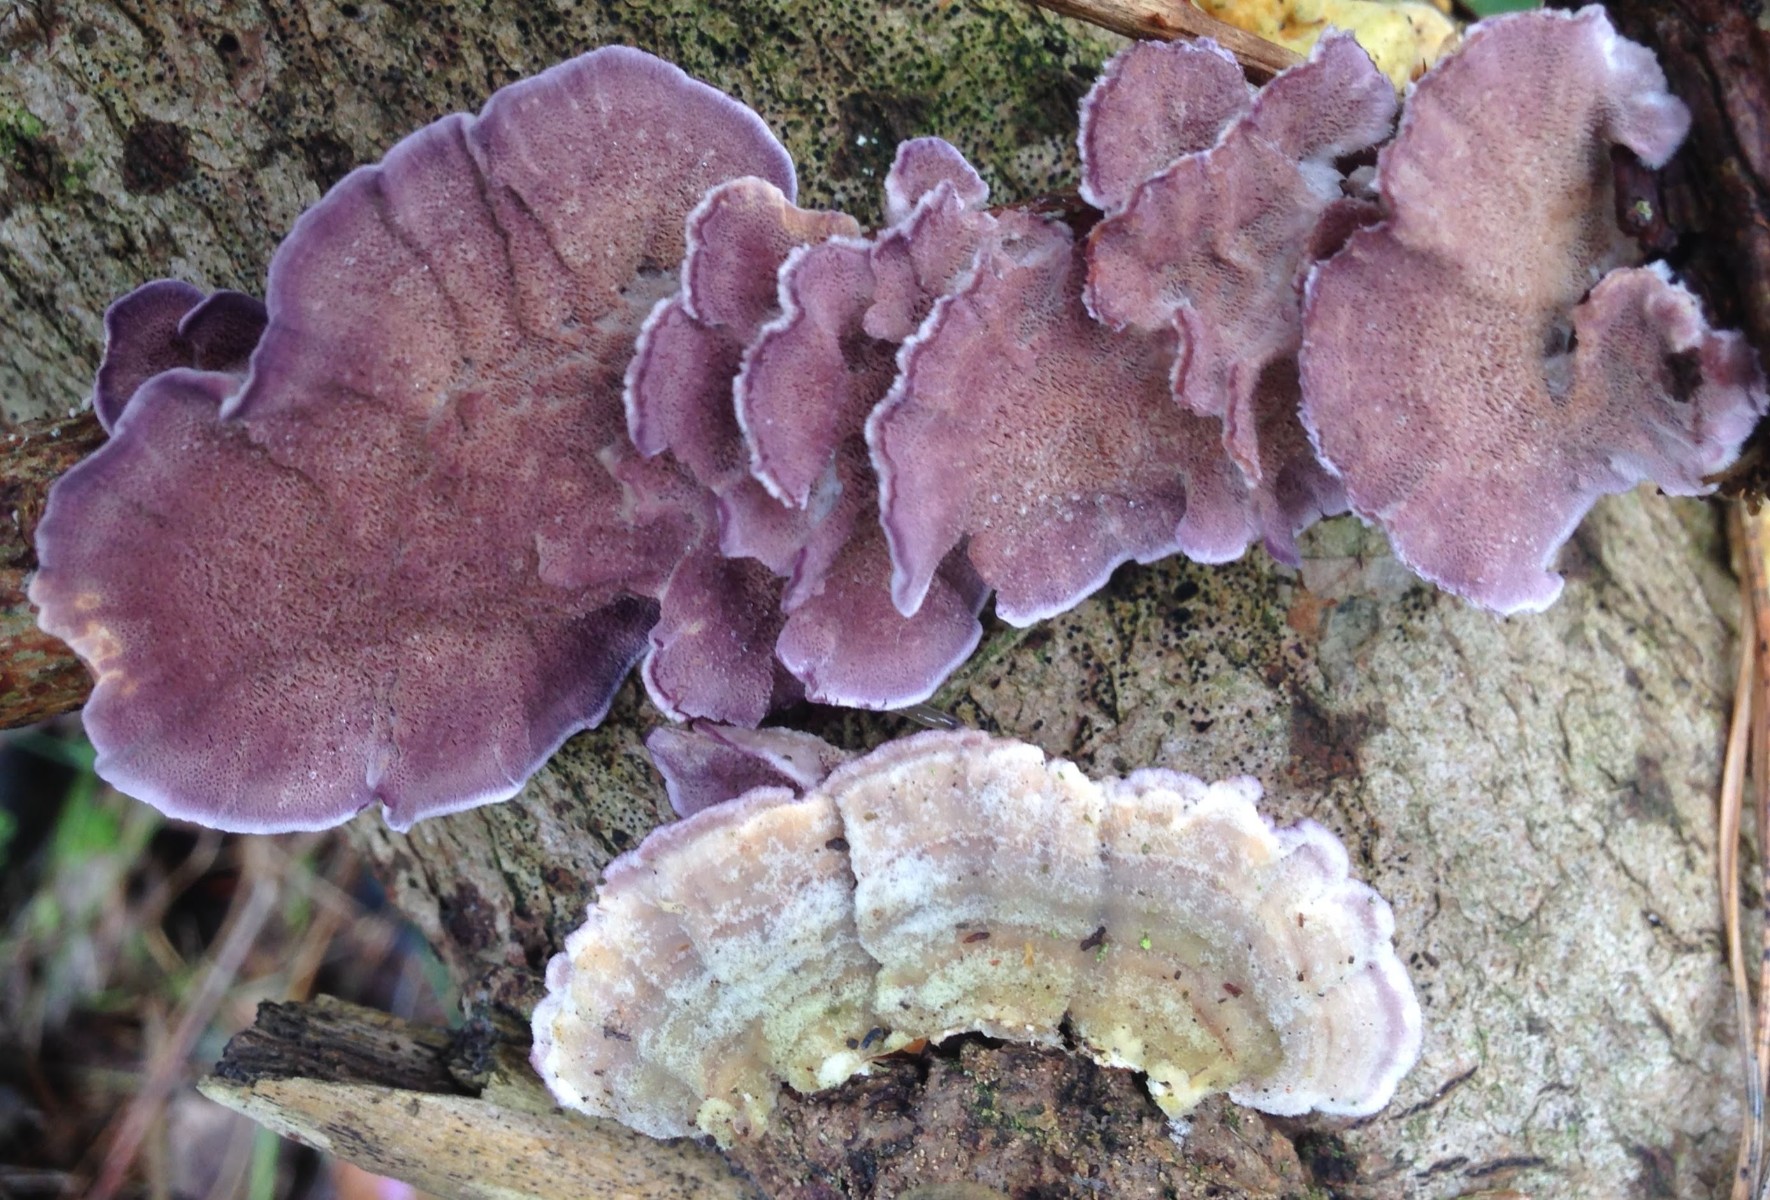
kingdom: Fungi
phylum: Basidiomycota
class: Agaricomycetes
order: Hymenochaetales
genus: Trichaptum
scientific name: Trichaptum abietinum
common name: almindelig violporesvamp
